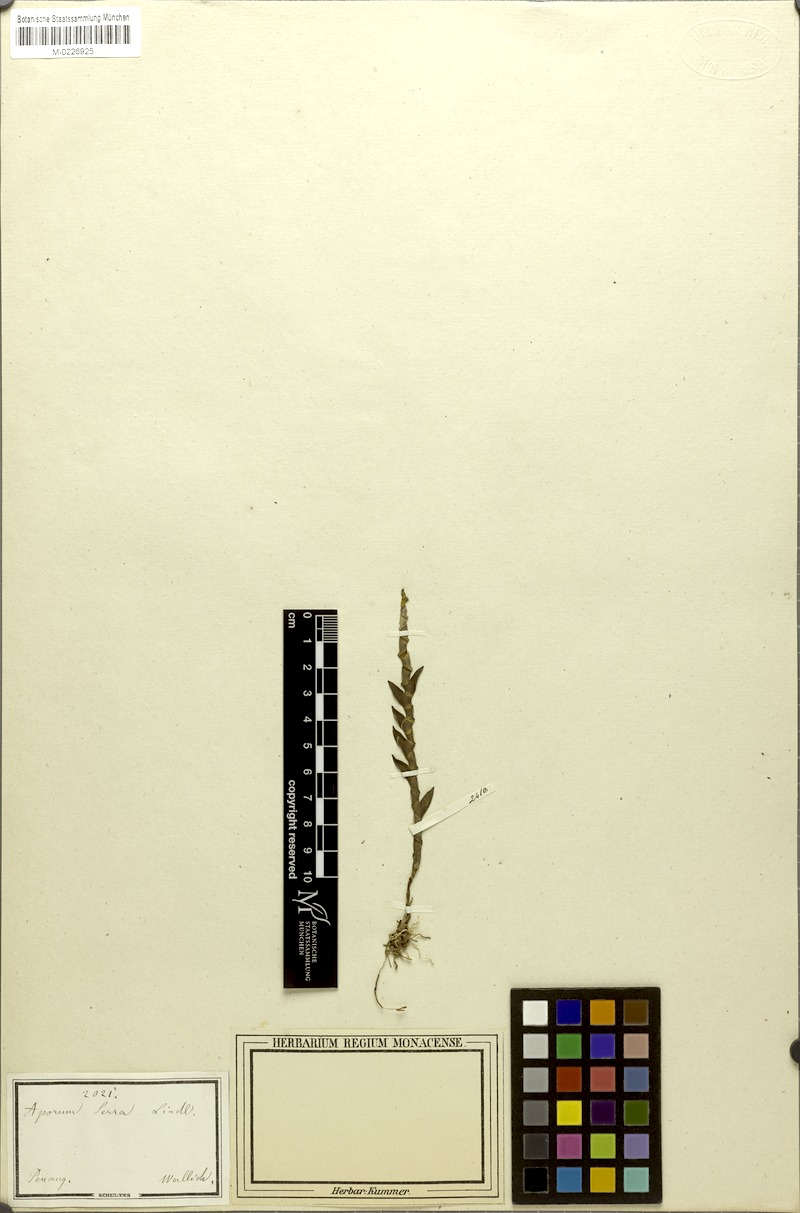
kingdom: Plantae
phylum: Tracheophyta
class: Liliopsida
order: Asparagales
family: Orchidaceae
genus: Dendrobium
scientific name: Dendrobium aloifolium
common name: Aloe-like dendrobium
